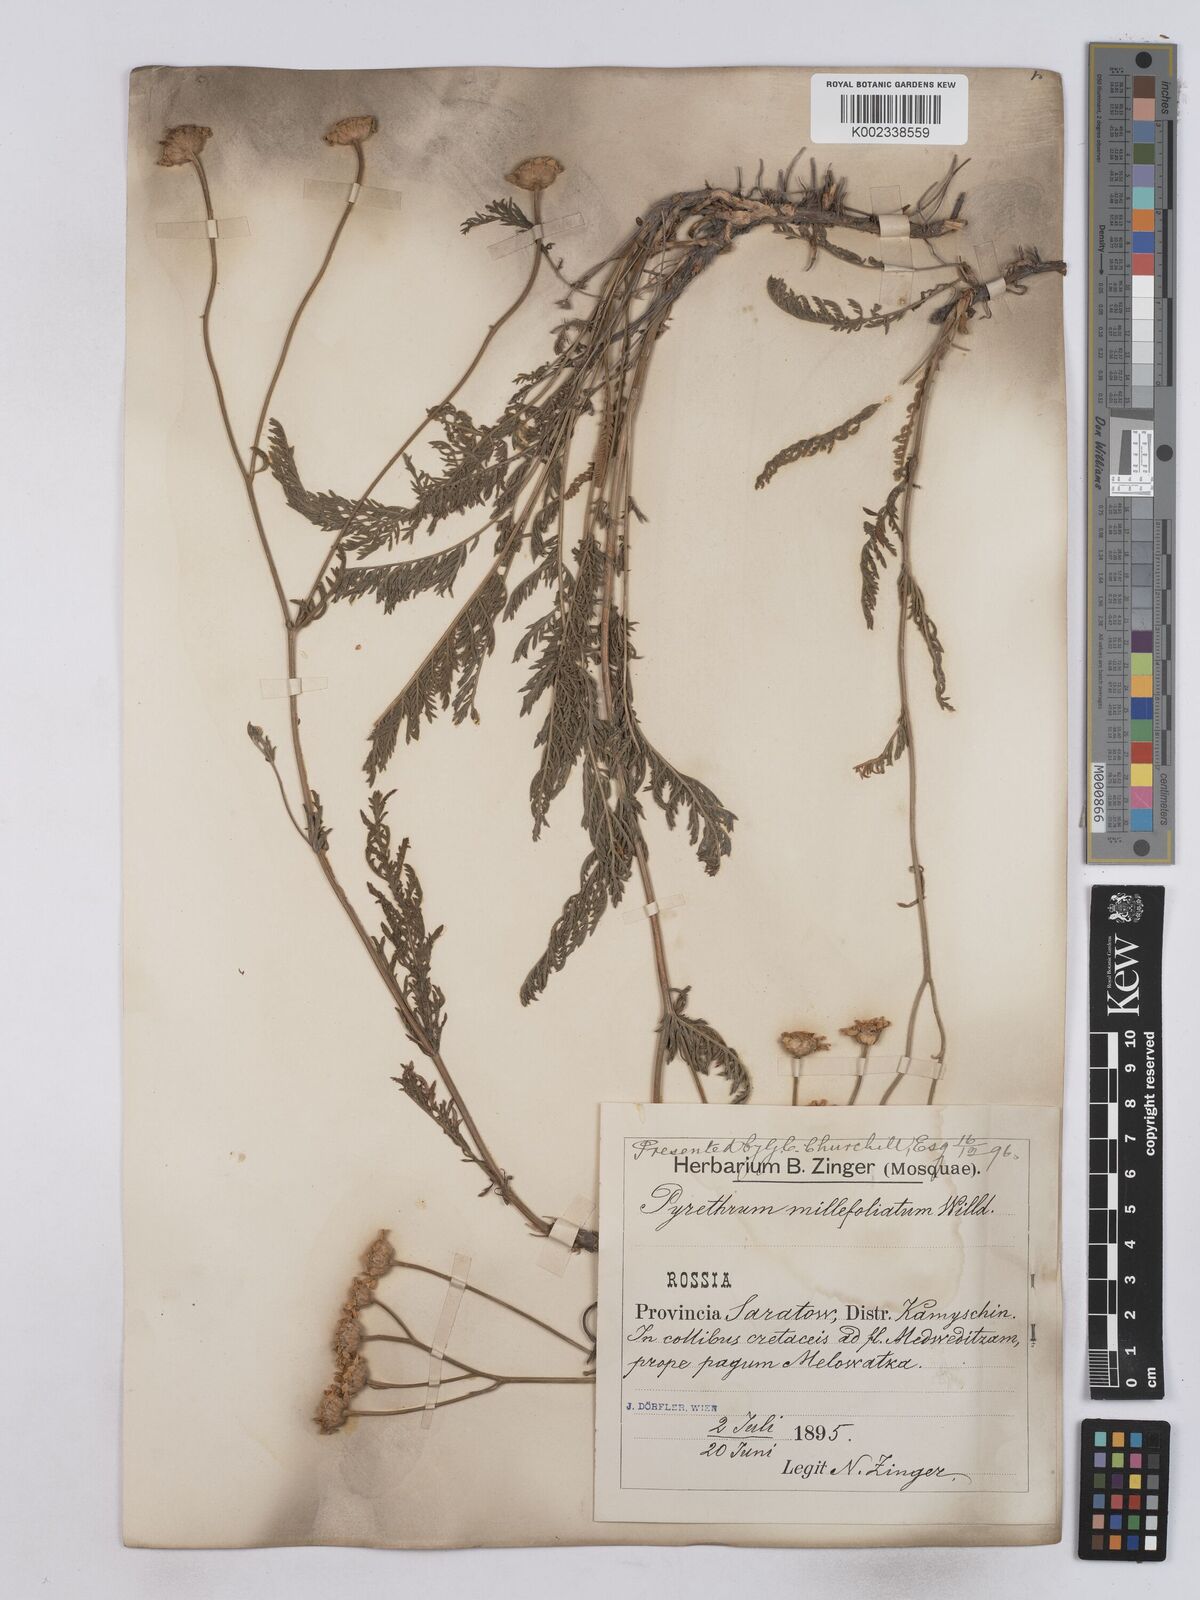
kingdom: Plantae
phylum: Tracheophyta
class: Magnoliopsida
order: Asterales
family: Asteraceae
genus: Tanacetum
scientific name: Tanacetum millefolium
